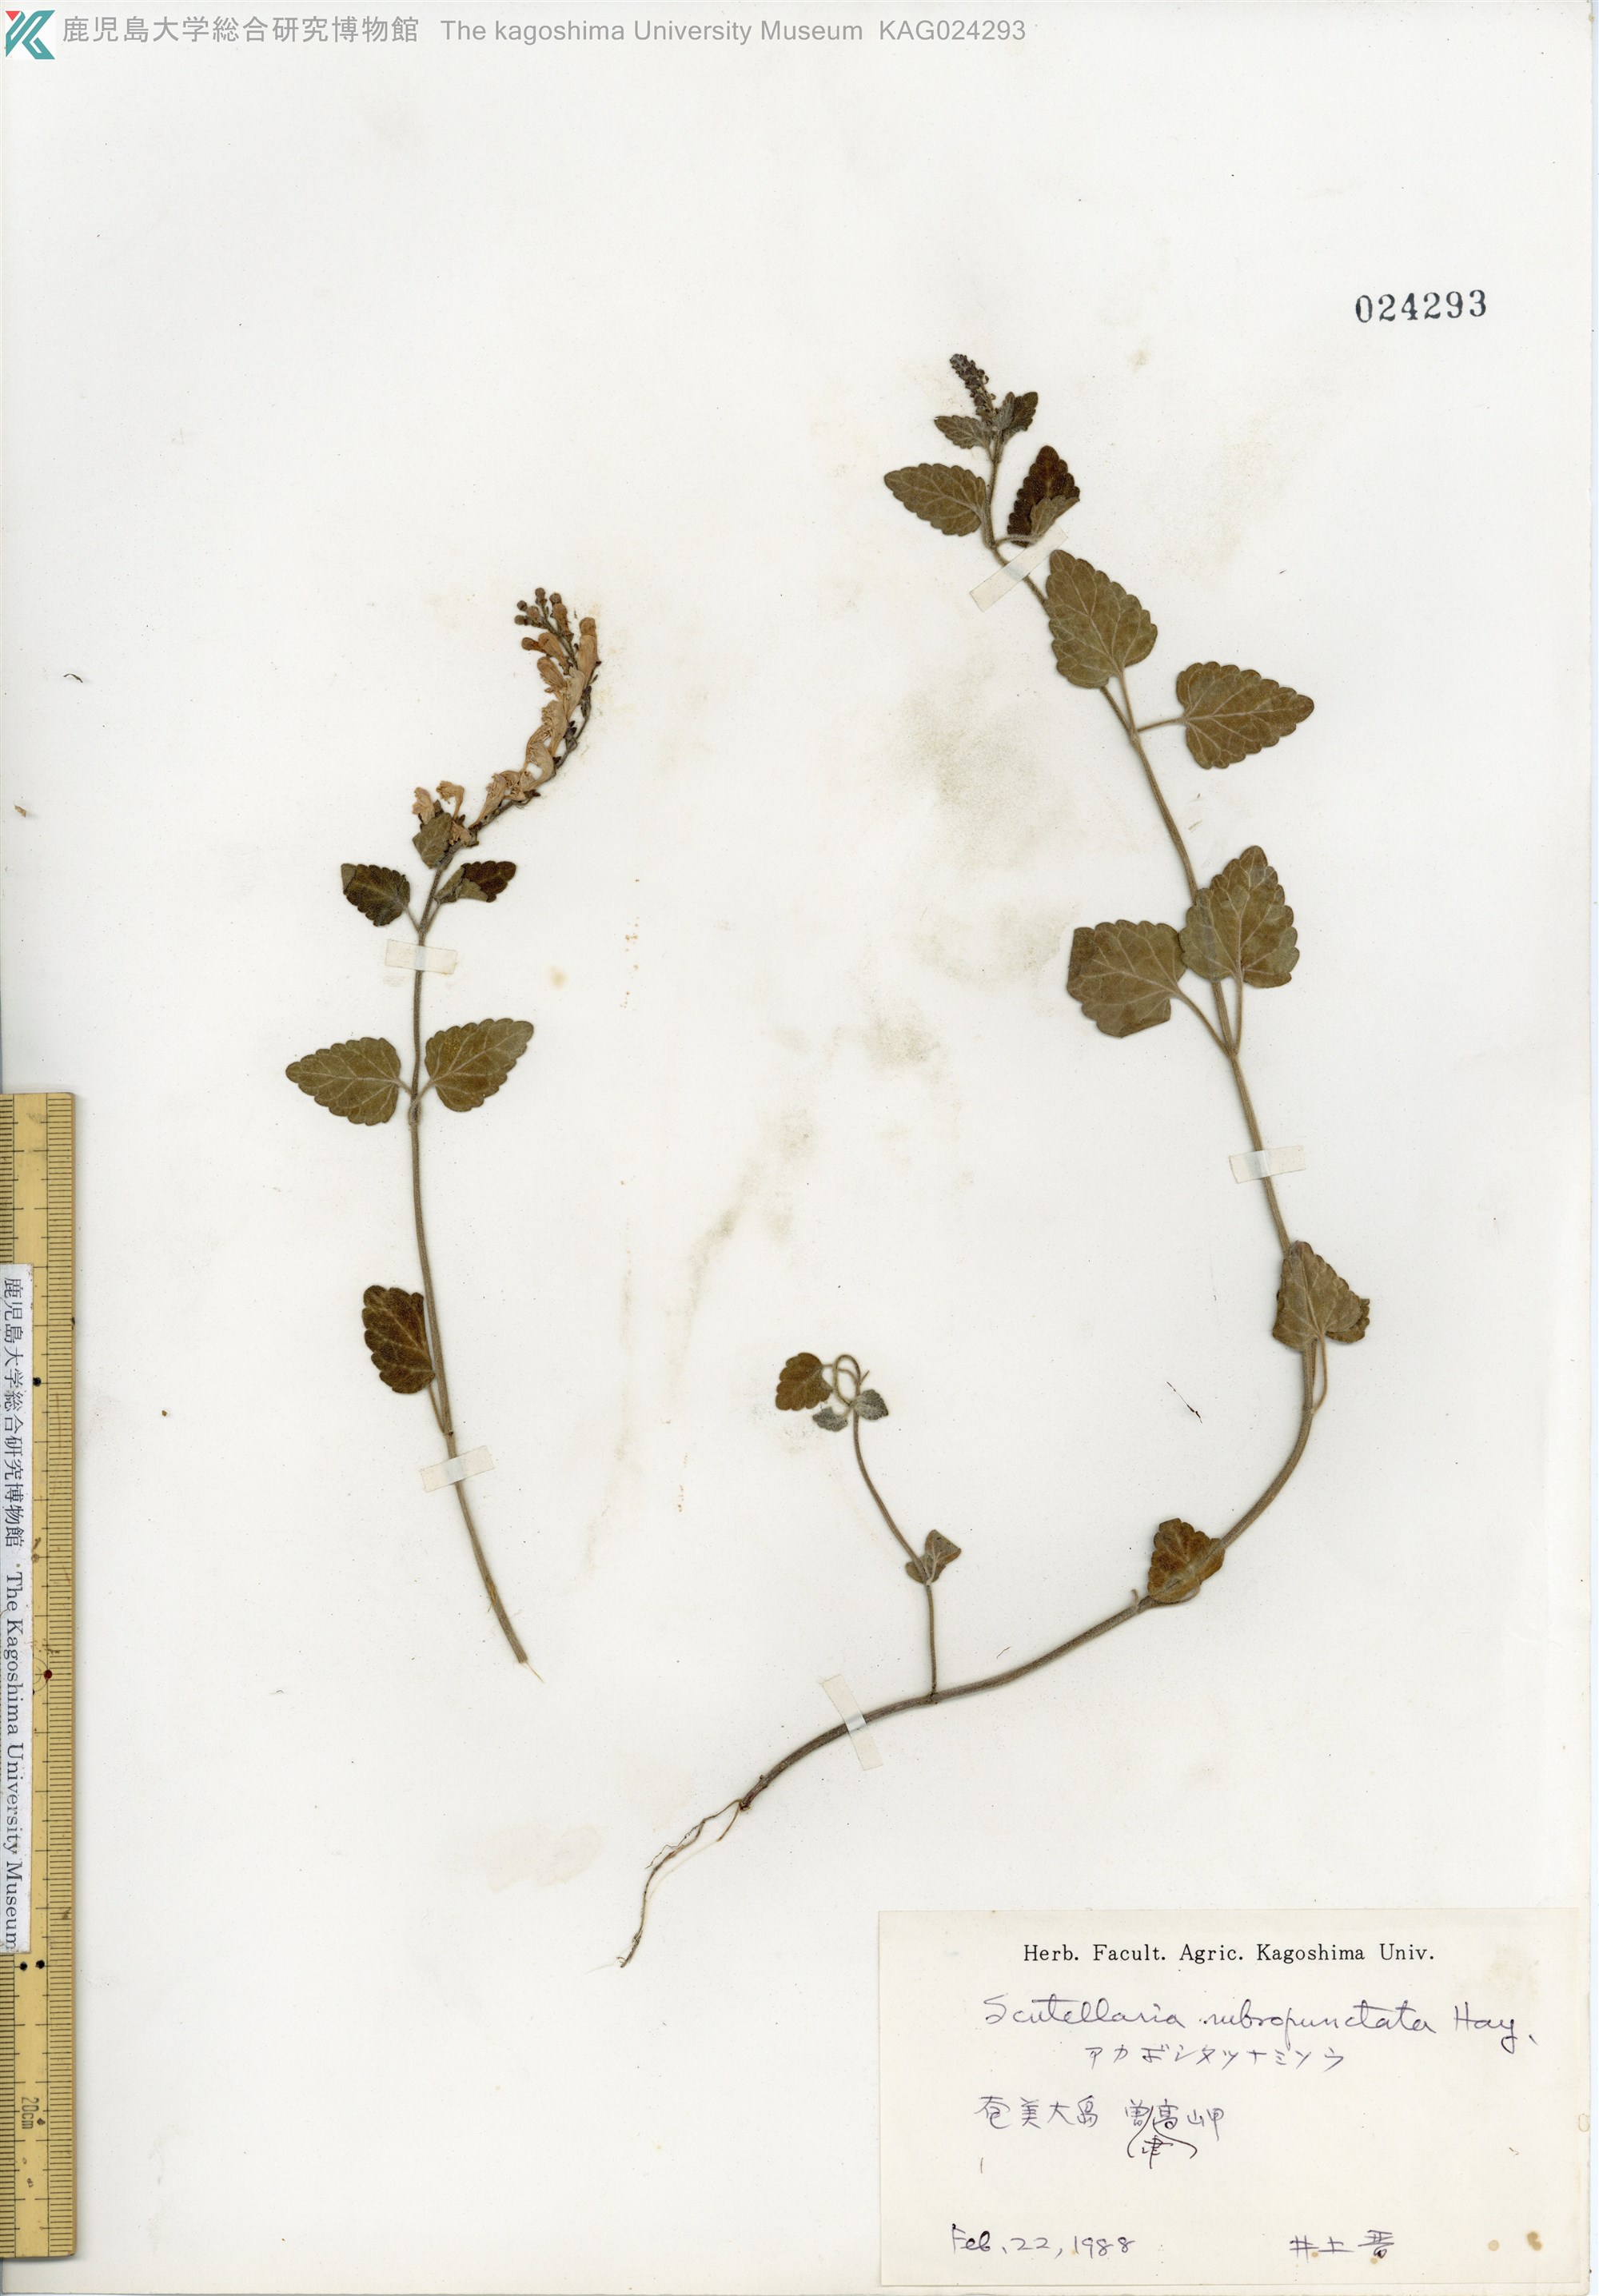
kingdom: Plantae
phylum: Tracheophyta
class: Magnoliopsida
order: Lamiales
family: Lamiaceae
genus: Scutellaria
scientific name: Scutellaria rubropunctata
